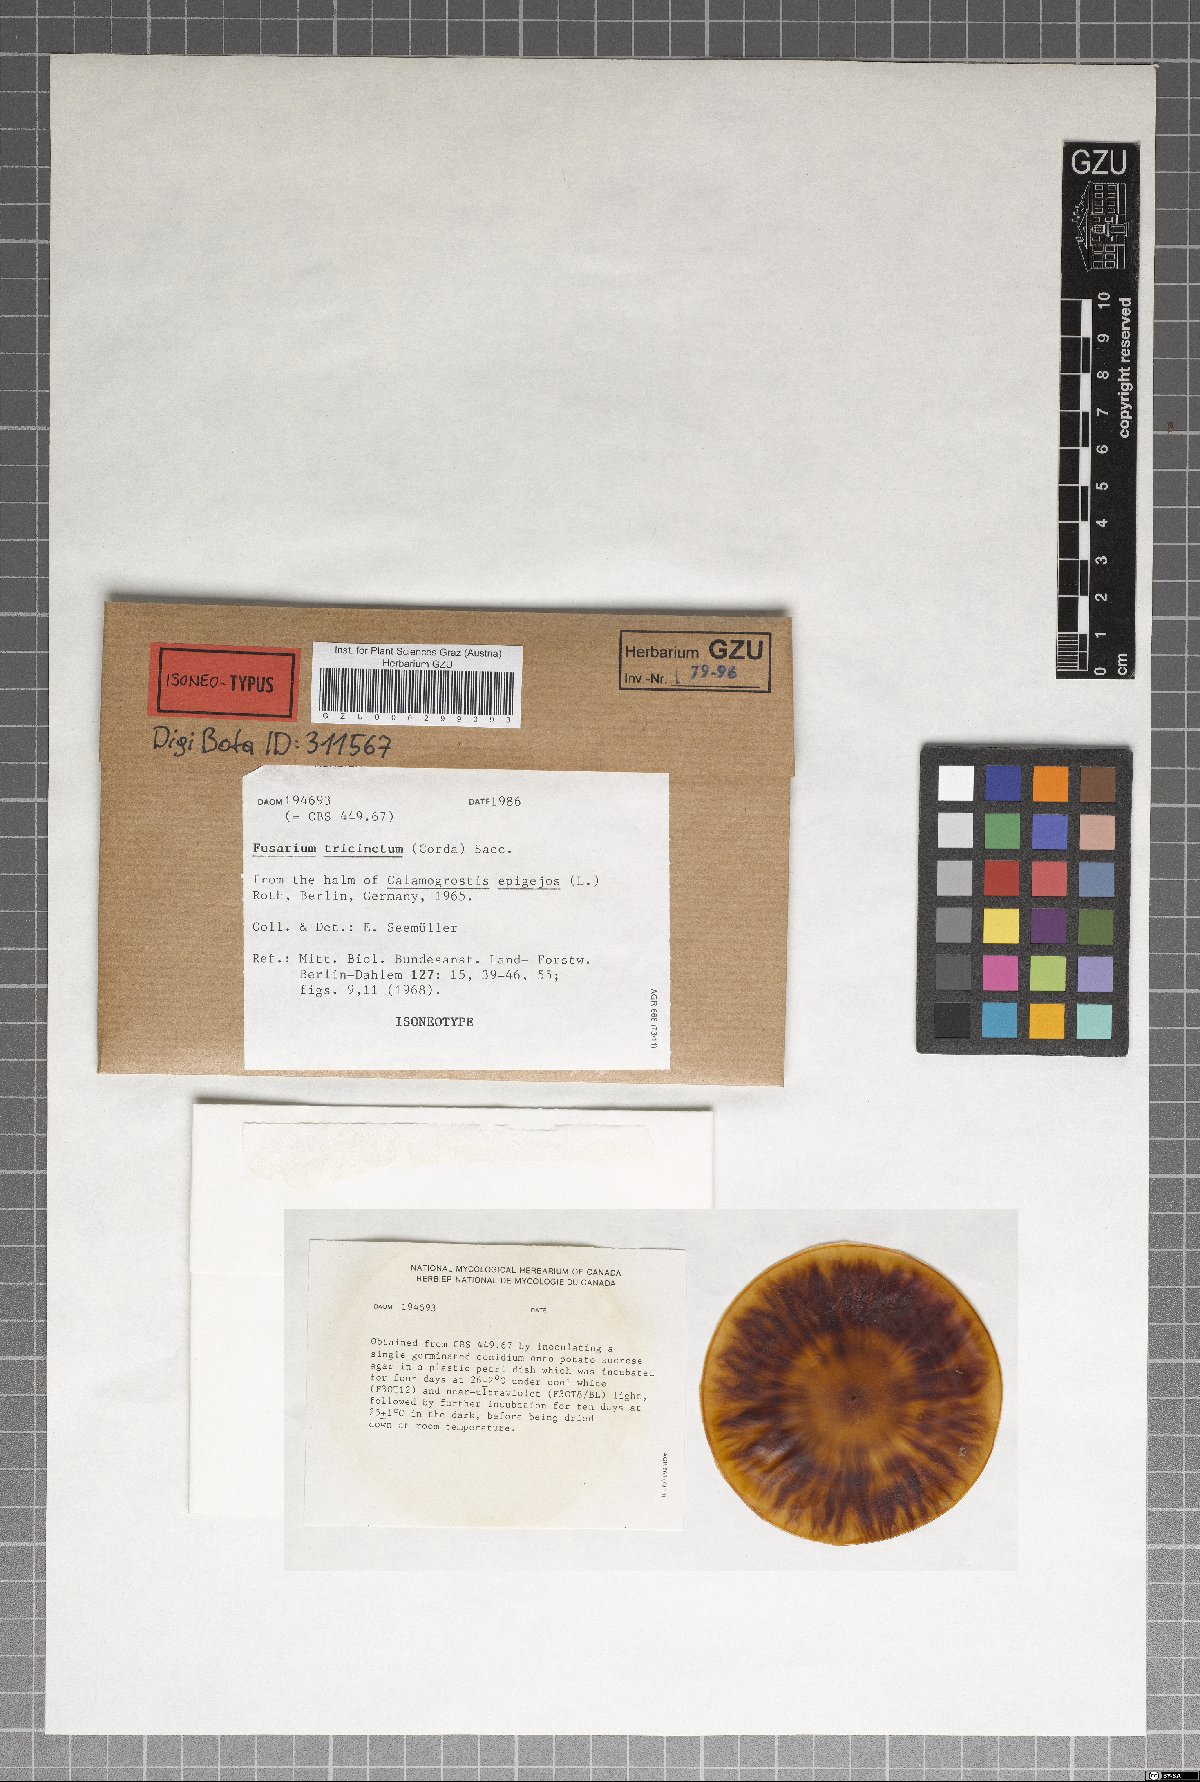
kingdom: Fungi
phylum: Ascomycota
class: Sordariomycetes
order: Hypocreales
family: Nectriaceae
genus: Fusarium
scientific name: Fusarium tricinctum
